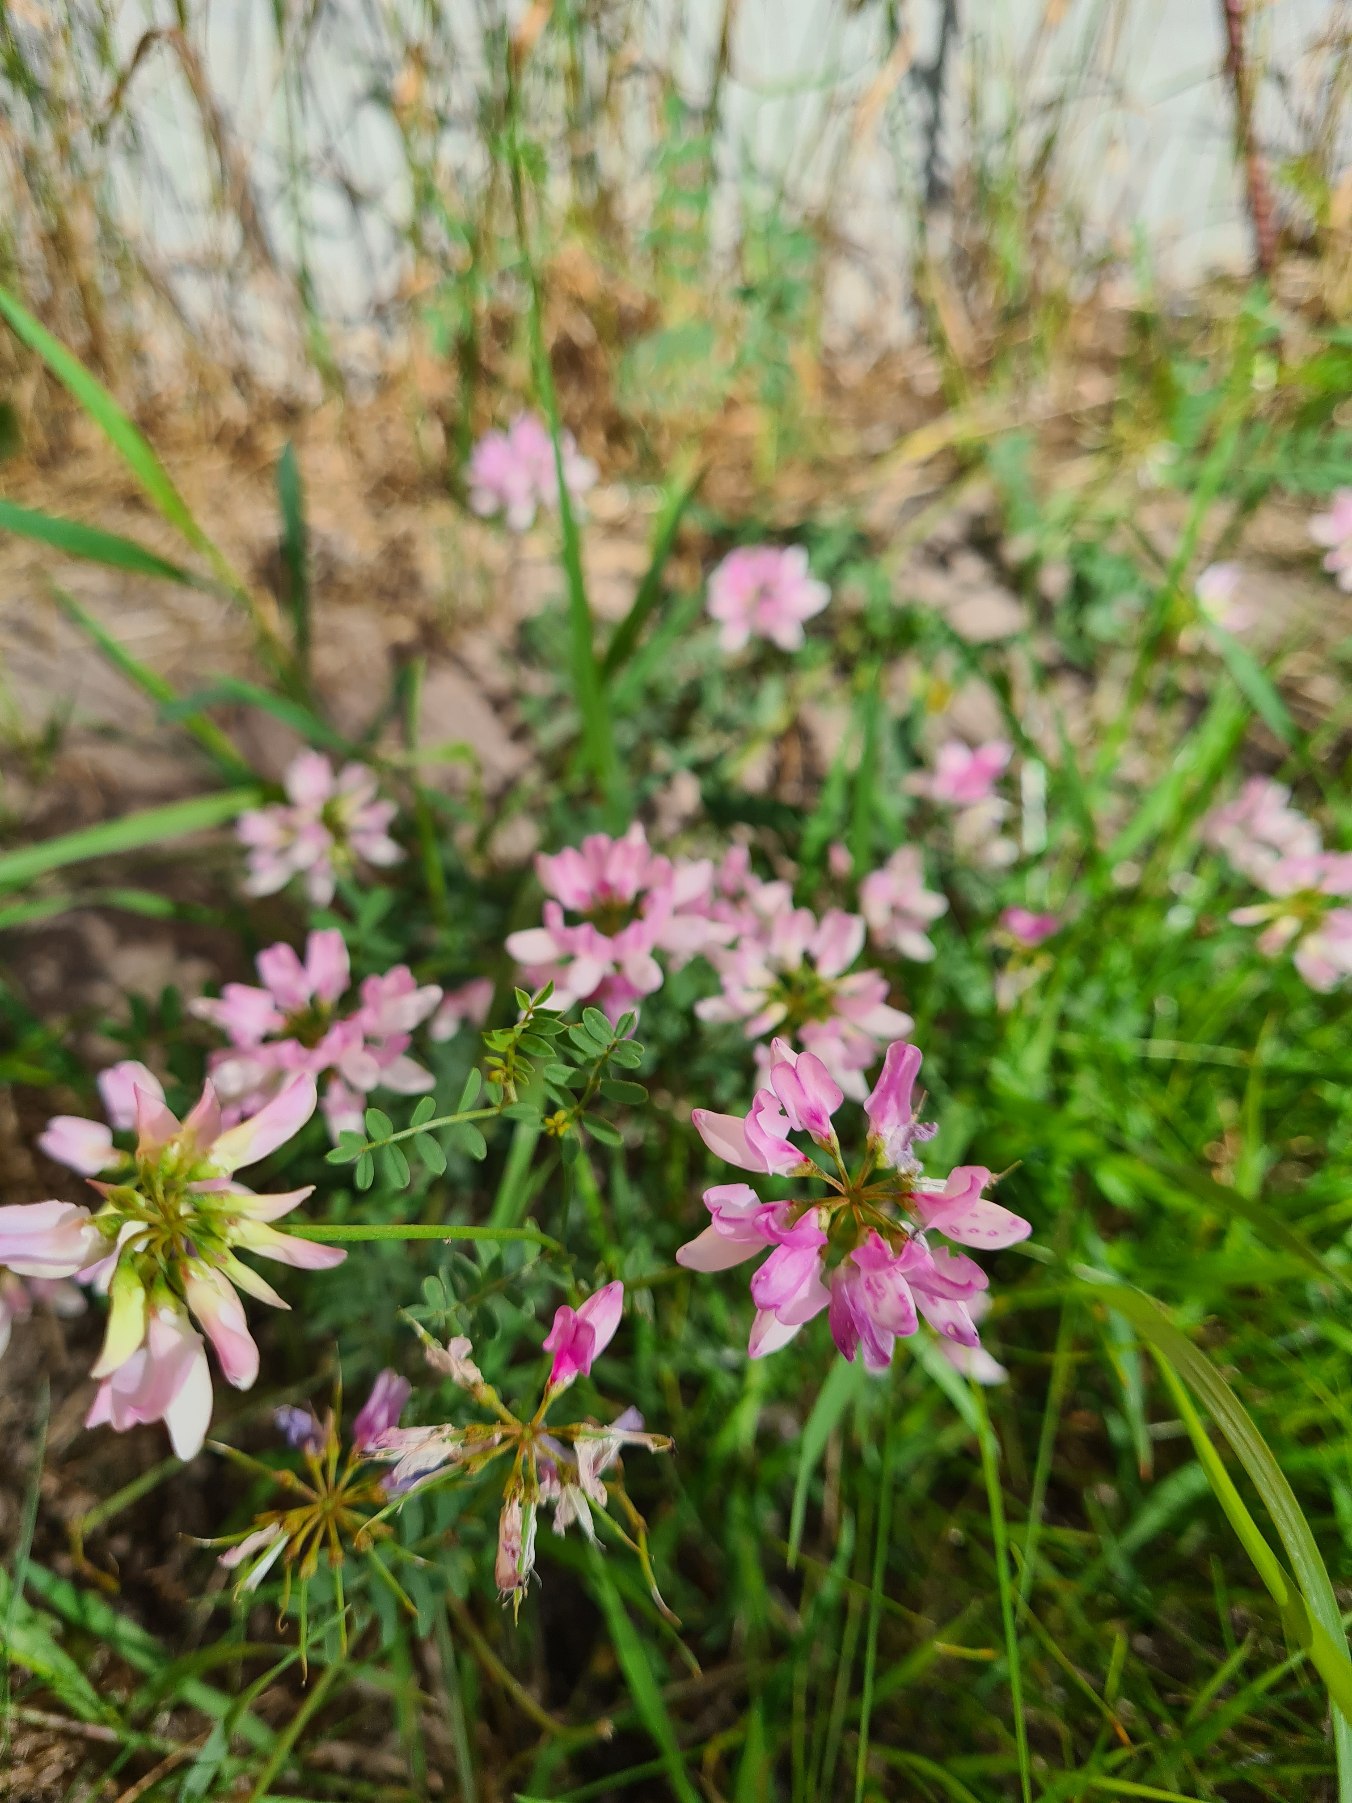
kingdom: Plantae
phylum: Tracheophyta
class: Magnoliopsida
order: Fabales
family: Fabaceae
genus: Coronilla
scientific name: Coronilla varia
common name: Giftig kronvikke
